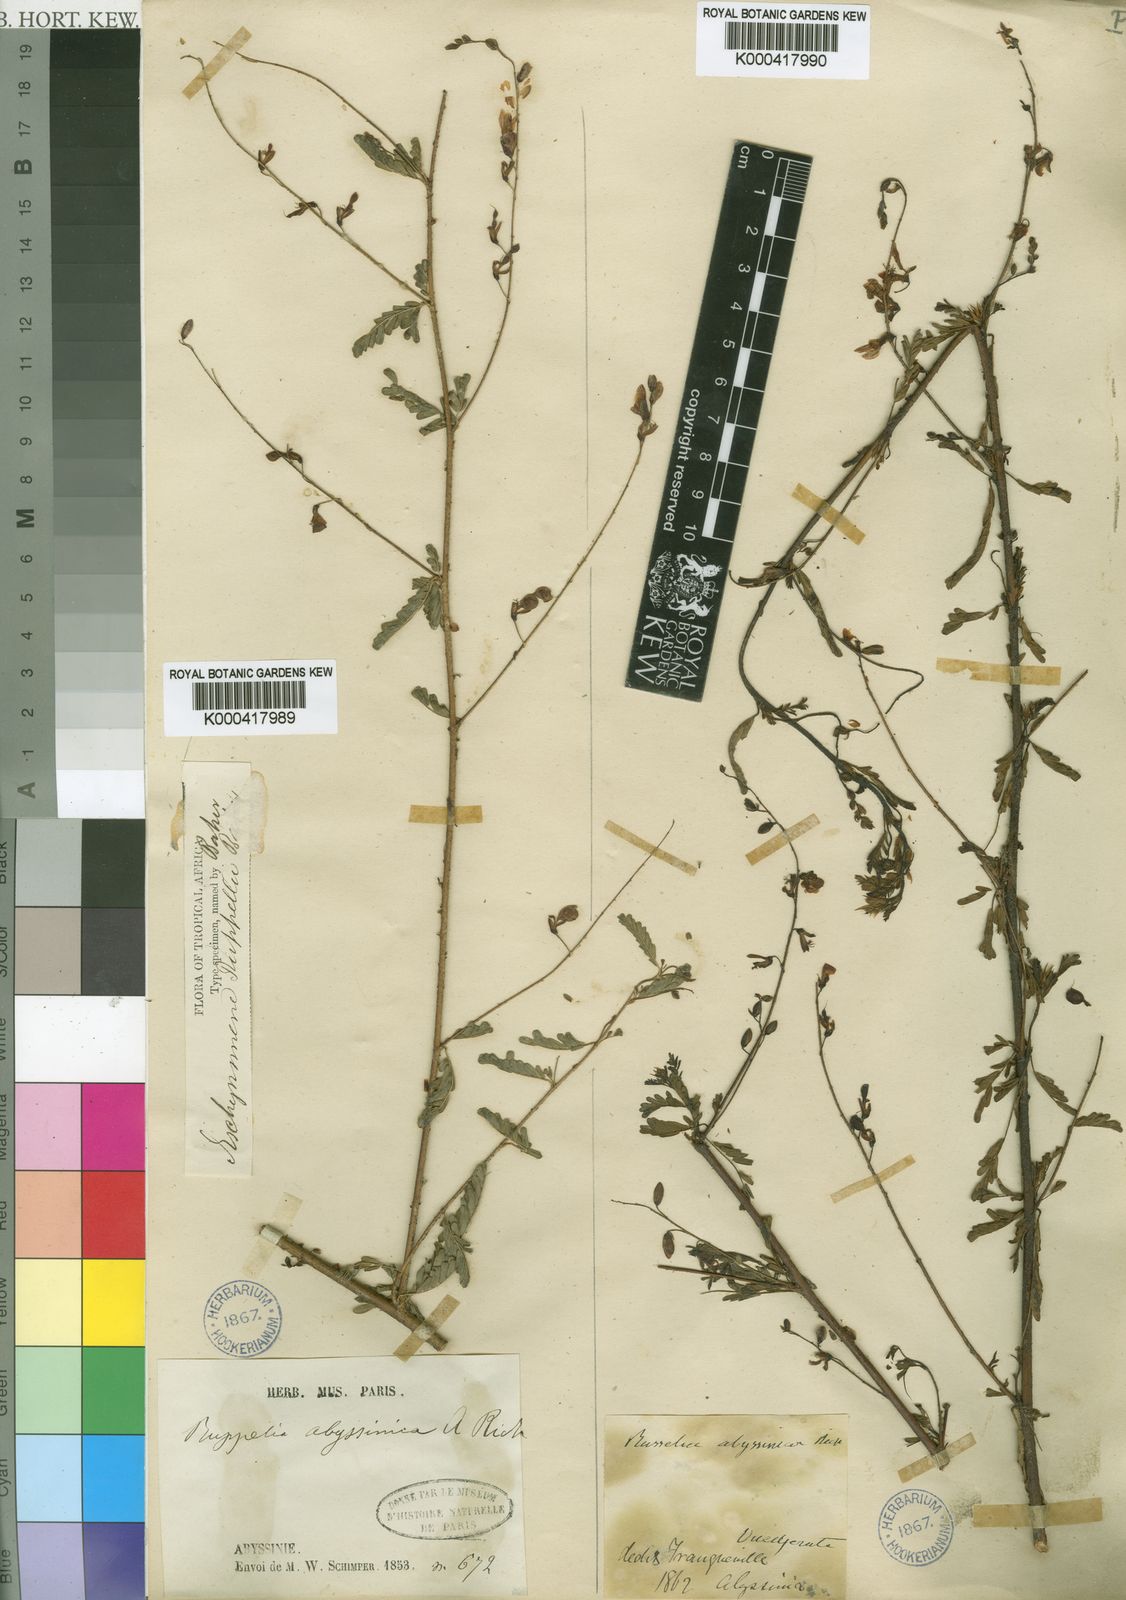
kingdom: Plantae
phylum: Tracheophyta
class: Magnoliopsida
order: Fabales
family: Fabaceae
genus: Aeschynomene
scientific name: Aeschynomene abyssinica
